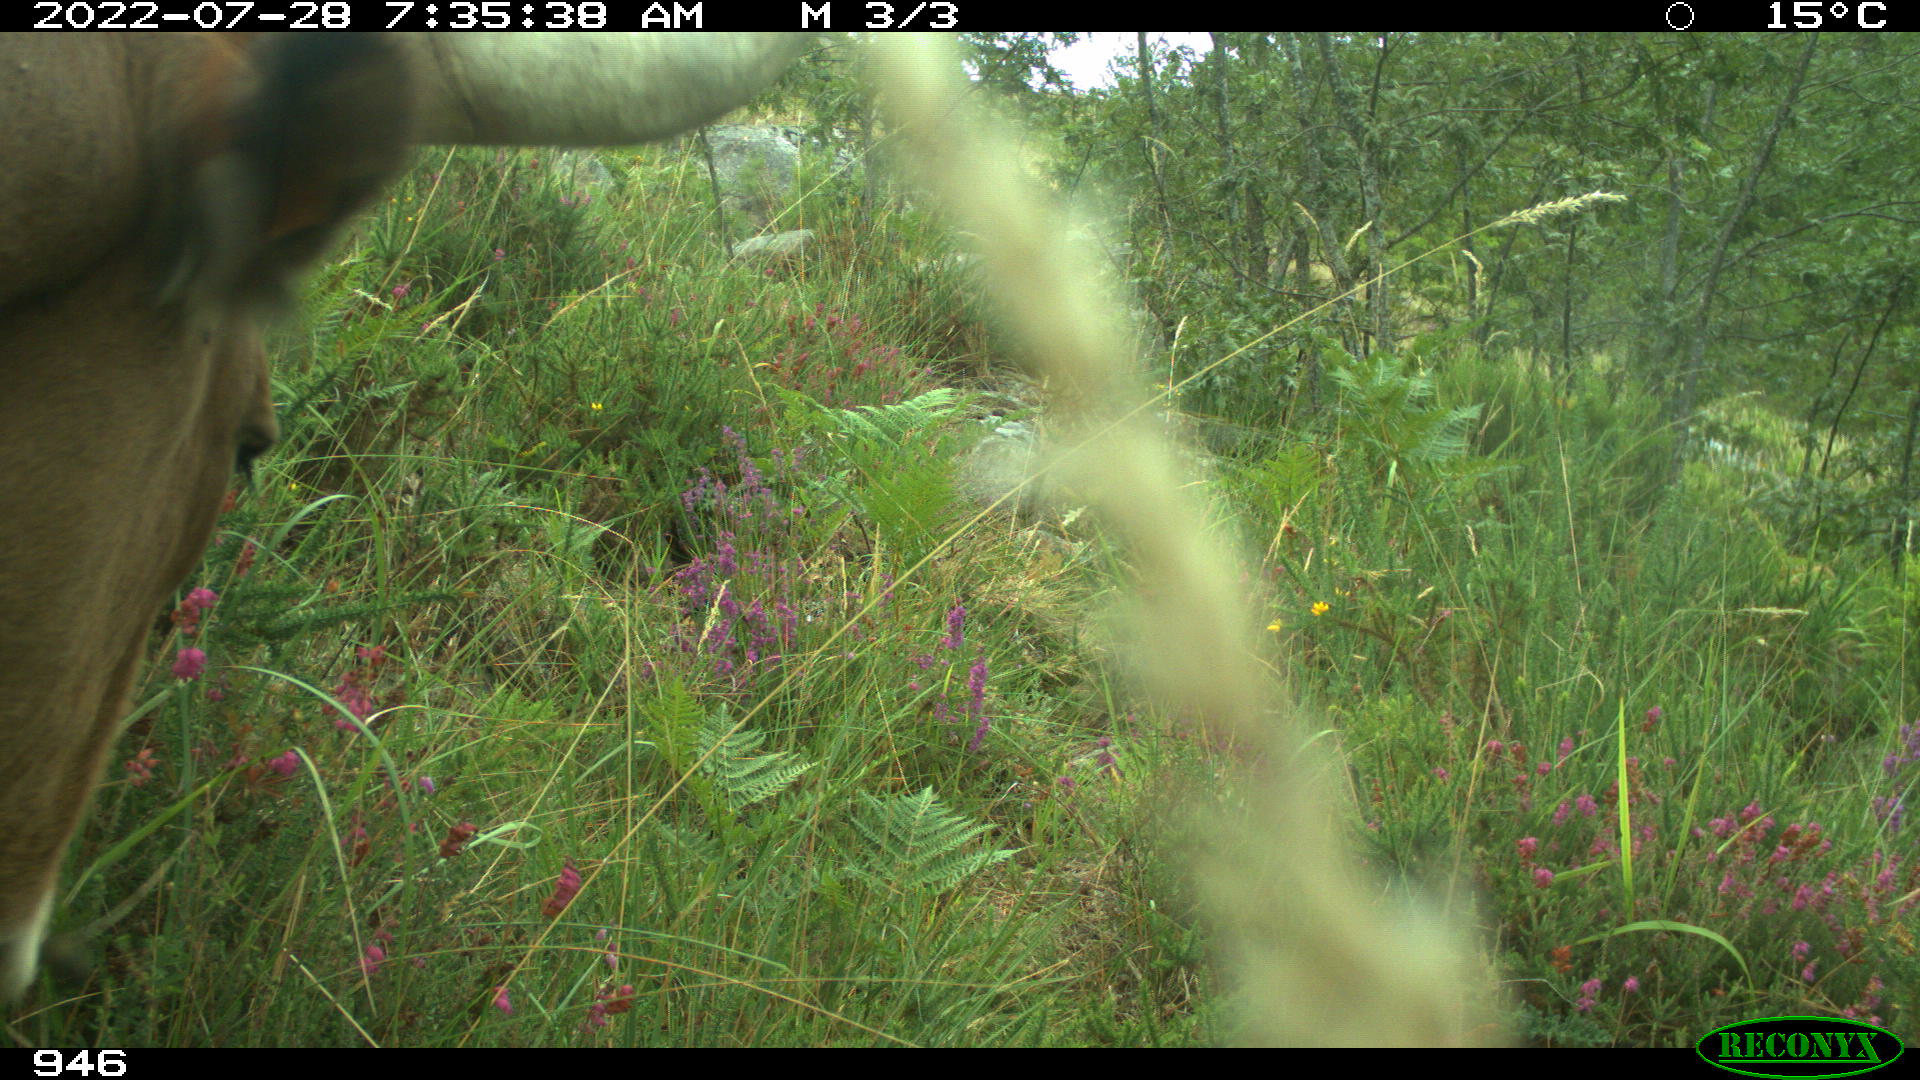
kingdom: Animalia
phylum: Chordata
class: Mammalia
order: Artiodactyla
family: Bovidae
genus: Bos
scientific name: Bos taurus
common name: Domesticated cattle
